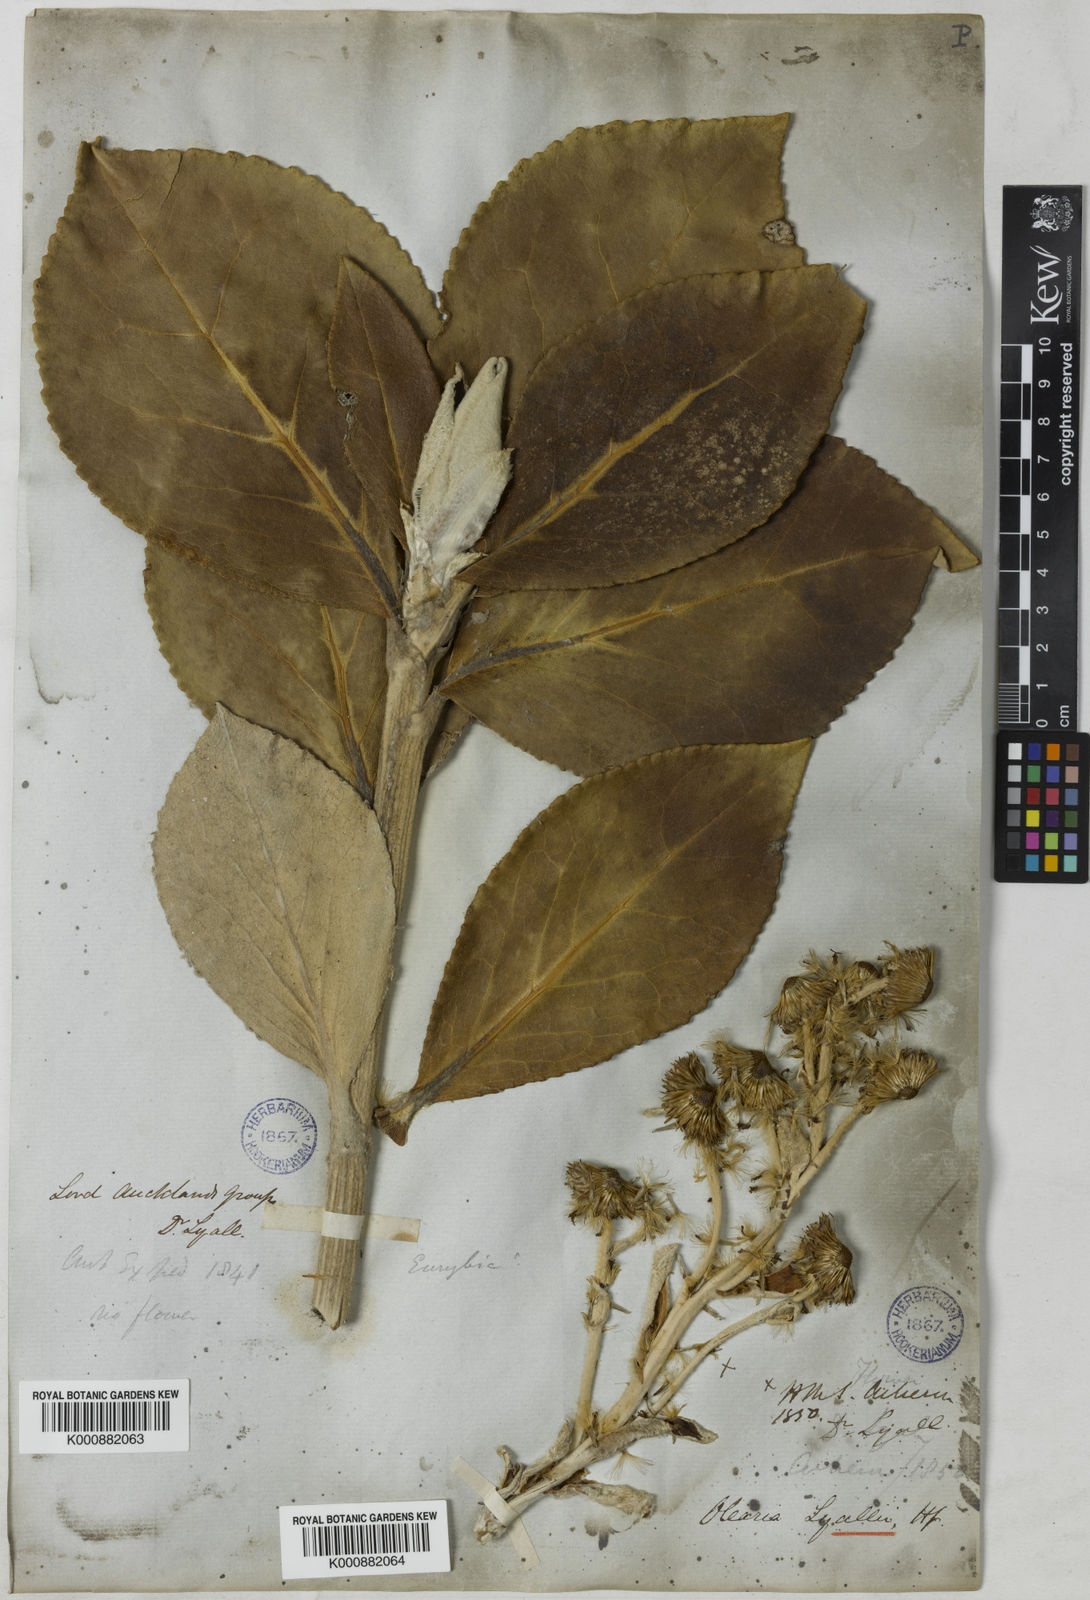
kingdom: Plantae
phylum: Tracheophyta
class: Magnoliopsida
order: Asterales
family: Asteraceae
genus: Macrolearia
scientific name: Macrolearia lyallii
